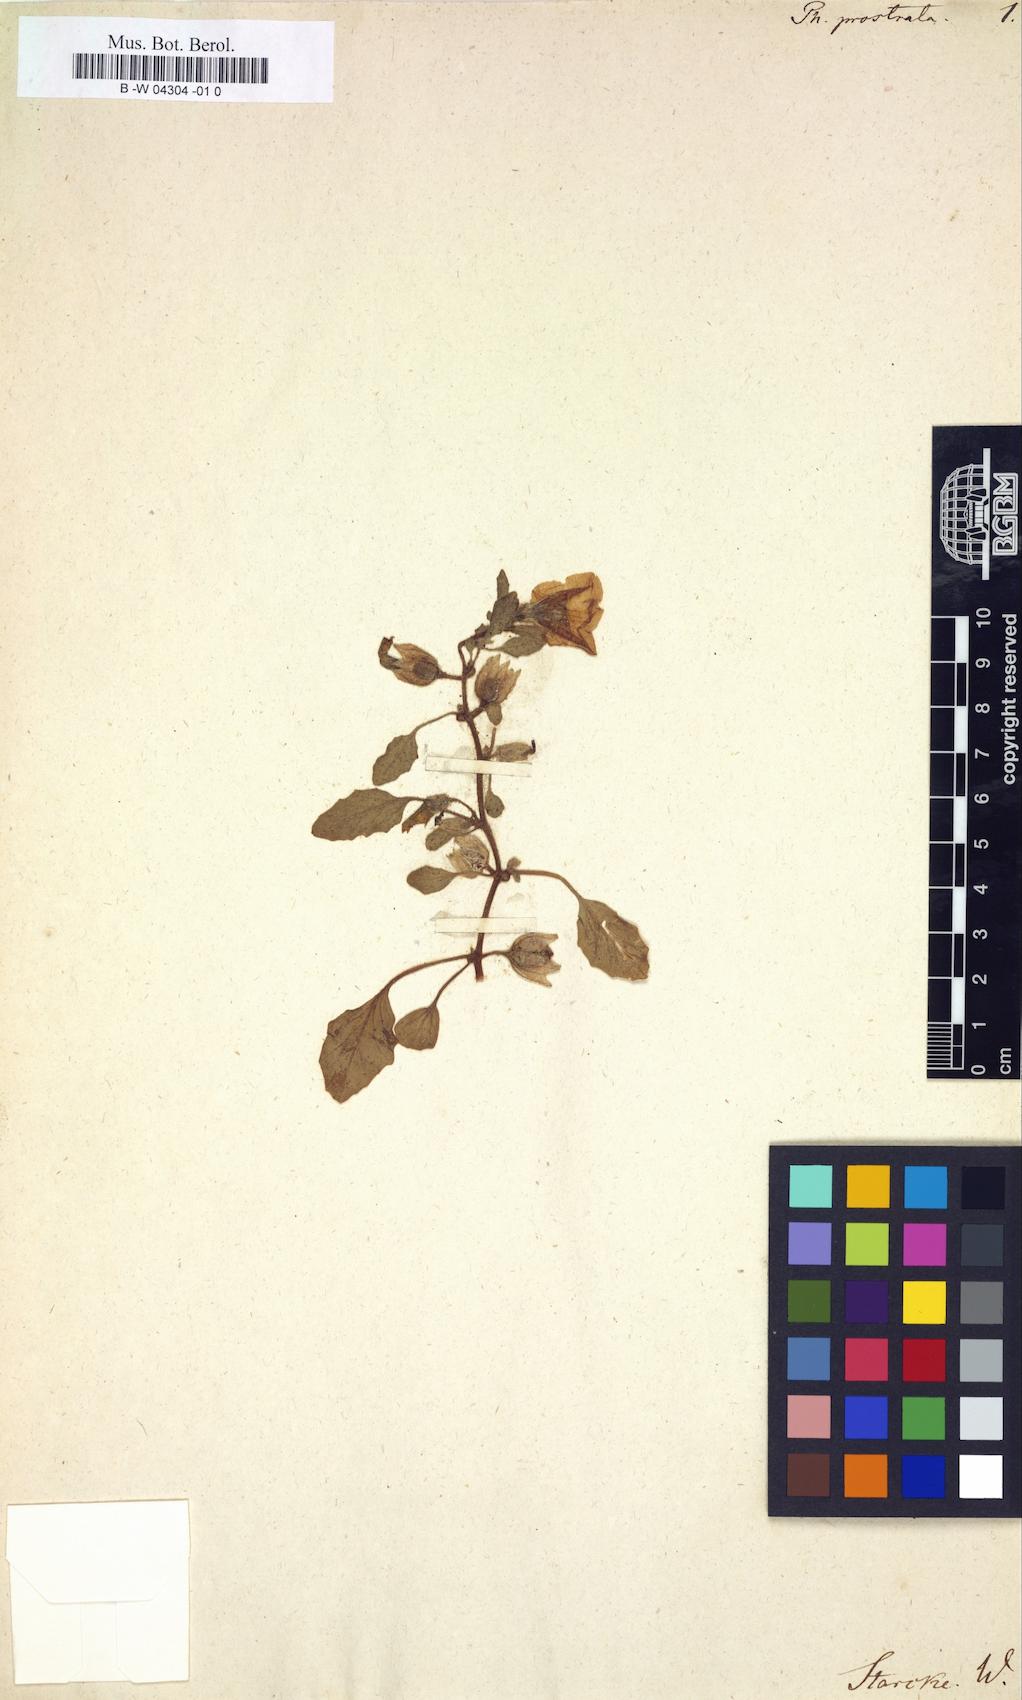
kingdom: Plantae
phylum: Tracheophyta
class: Magnoliopsida
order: Solanales
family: Solanaceae
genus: Exodeconus
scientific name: Exodeconus prostratus
